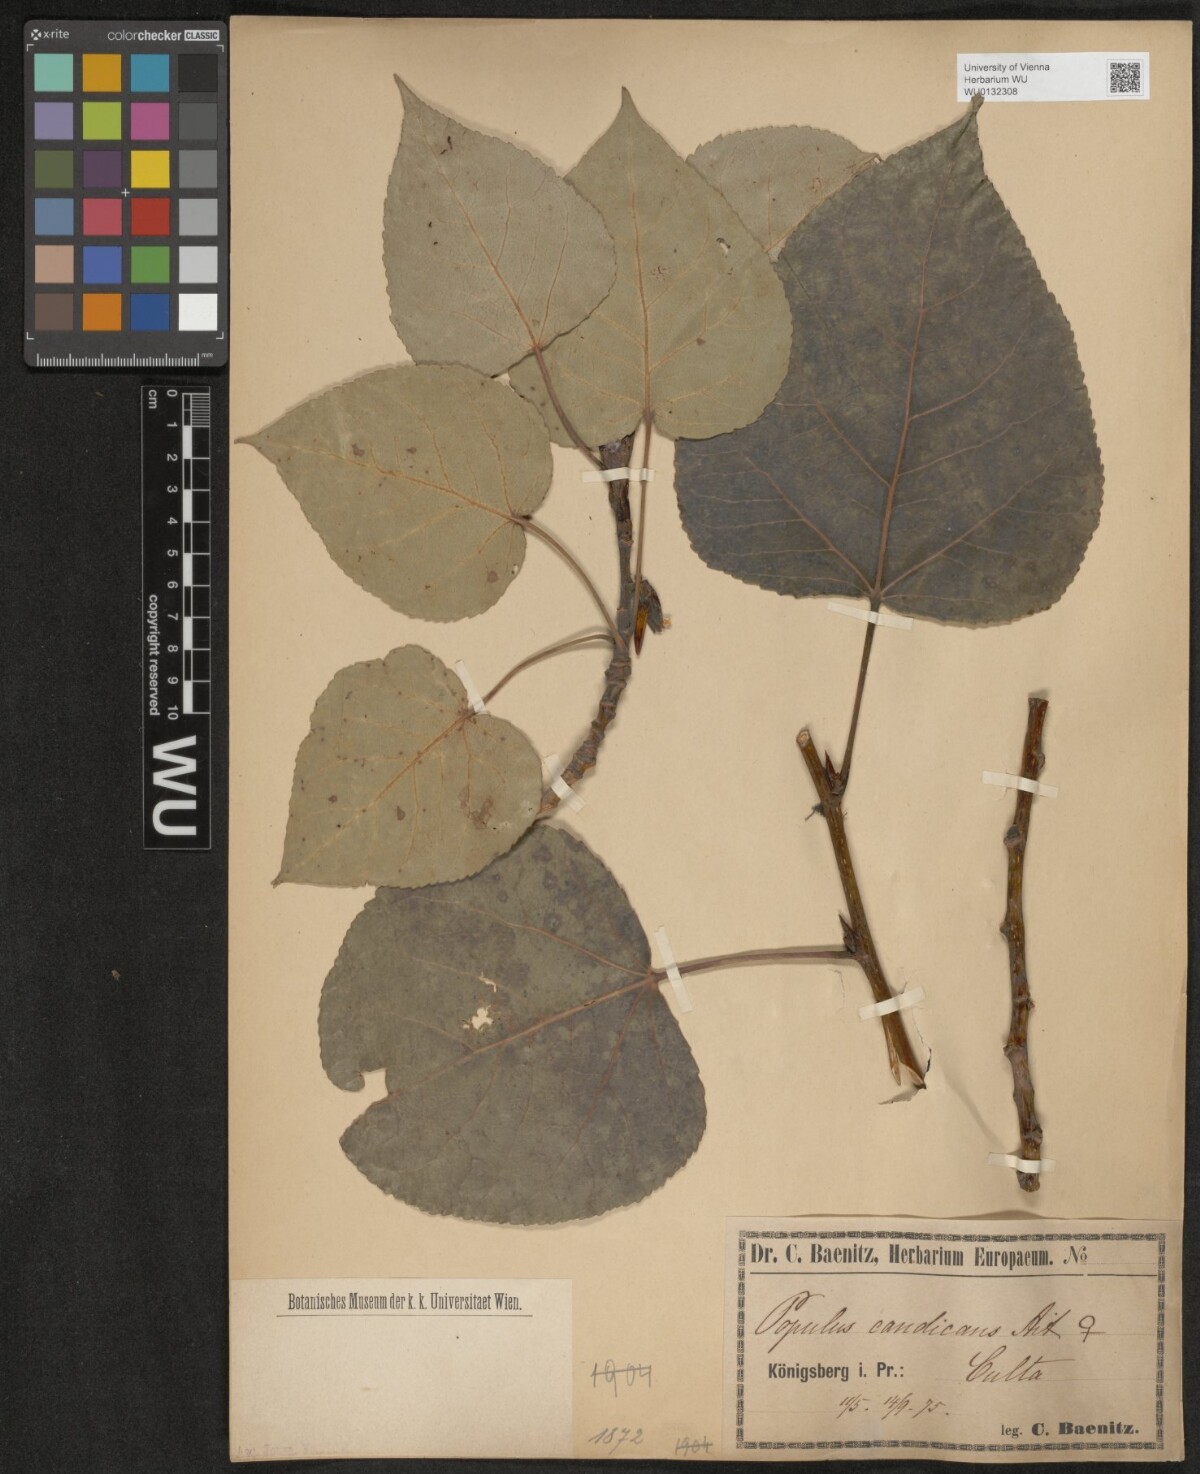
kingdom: Plantae
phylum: Tracheophyta
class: Magnoliopsida
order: Malpighiales
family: Salicaceae
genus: Populus
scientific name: Populus balsamifera
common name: Balsam poplar
